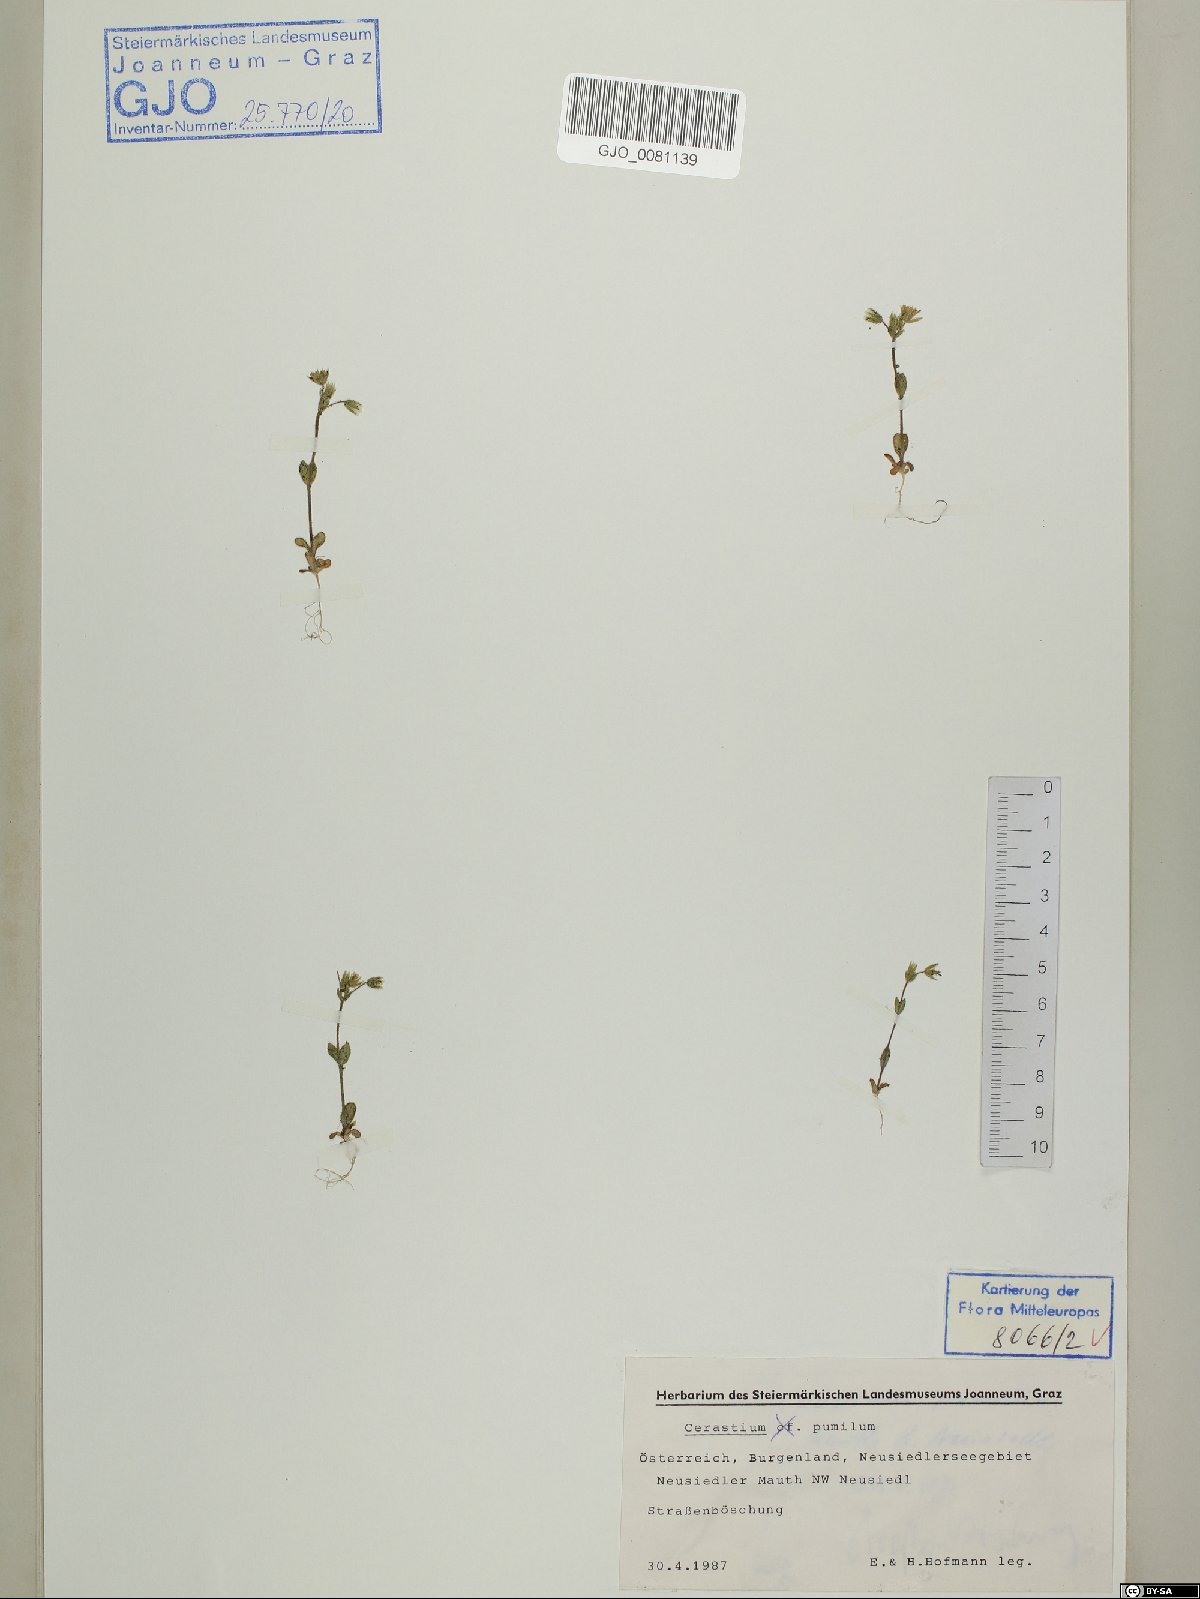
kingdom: Plantae
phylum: Tracheophyta
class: Magnoliopsida
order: Caryophyllales
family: Caryophyllaceae
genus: Cerastium
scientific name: Cerastium pumilum
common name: Dwarf mouse-ear
